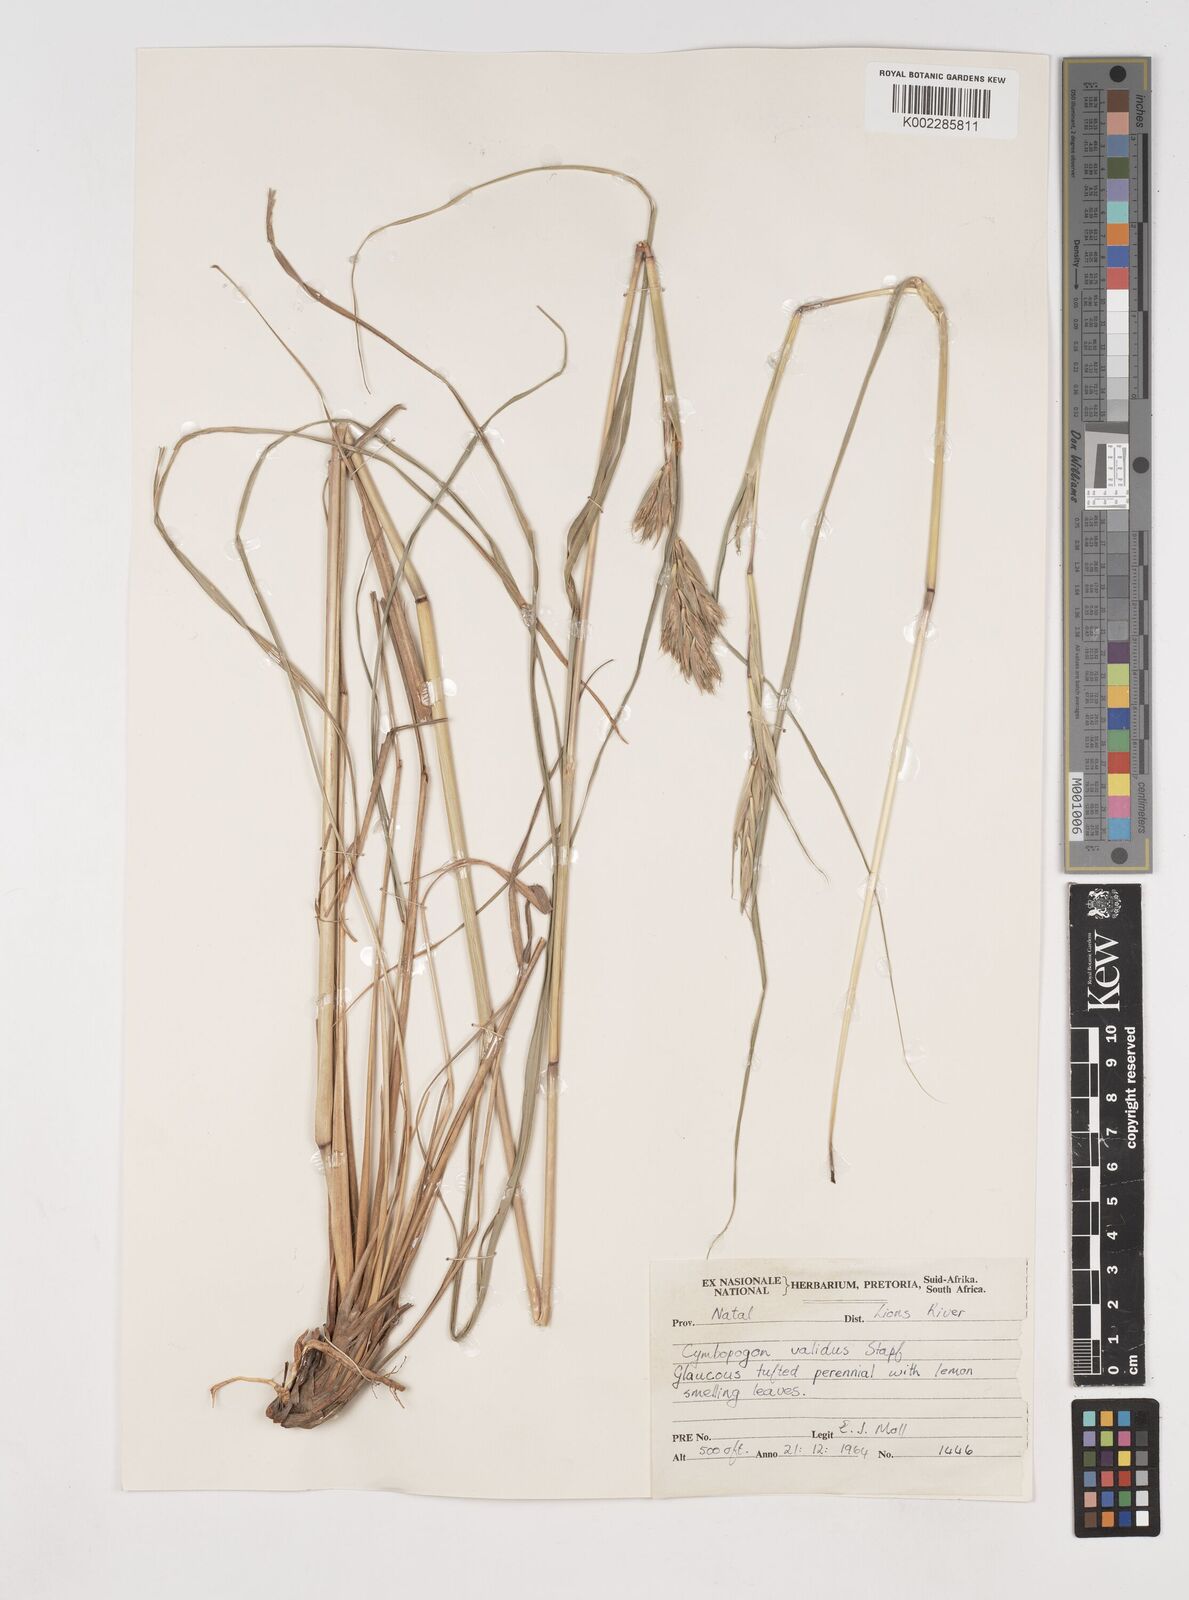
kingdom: Plantae
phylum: Tracheophyta
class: Liliopsida
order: Poales
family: Poaceae
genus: Cymbopogon
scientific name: Cymbopogon nardus
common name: Giant turpentine grass
